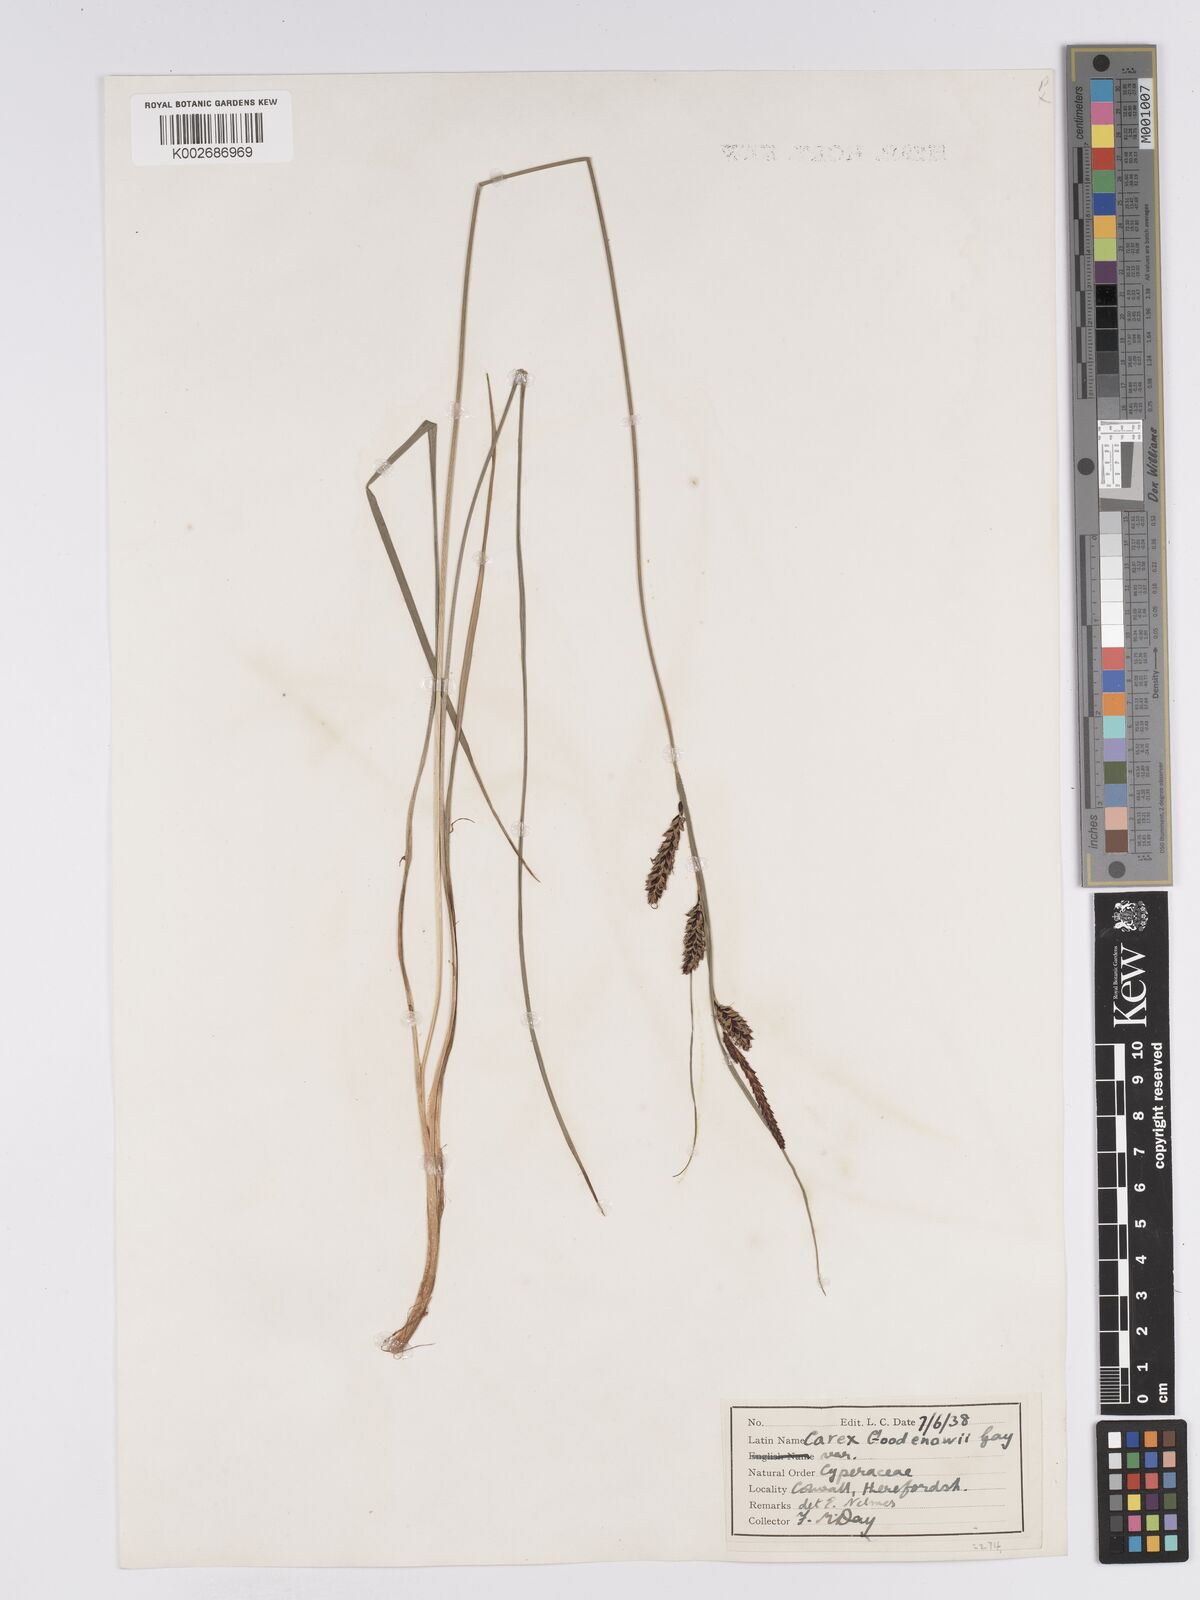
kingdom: Plantae
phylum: Tracheophyta
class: Liliopsida
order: Poales
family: Cyperaceae
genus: Carex
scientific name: Carex nigra
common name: Common sedge
